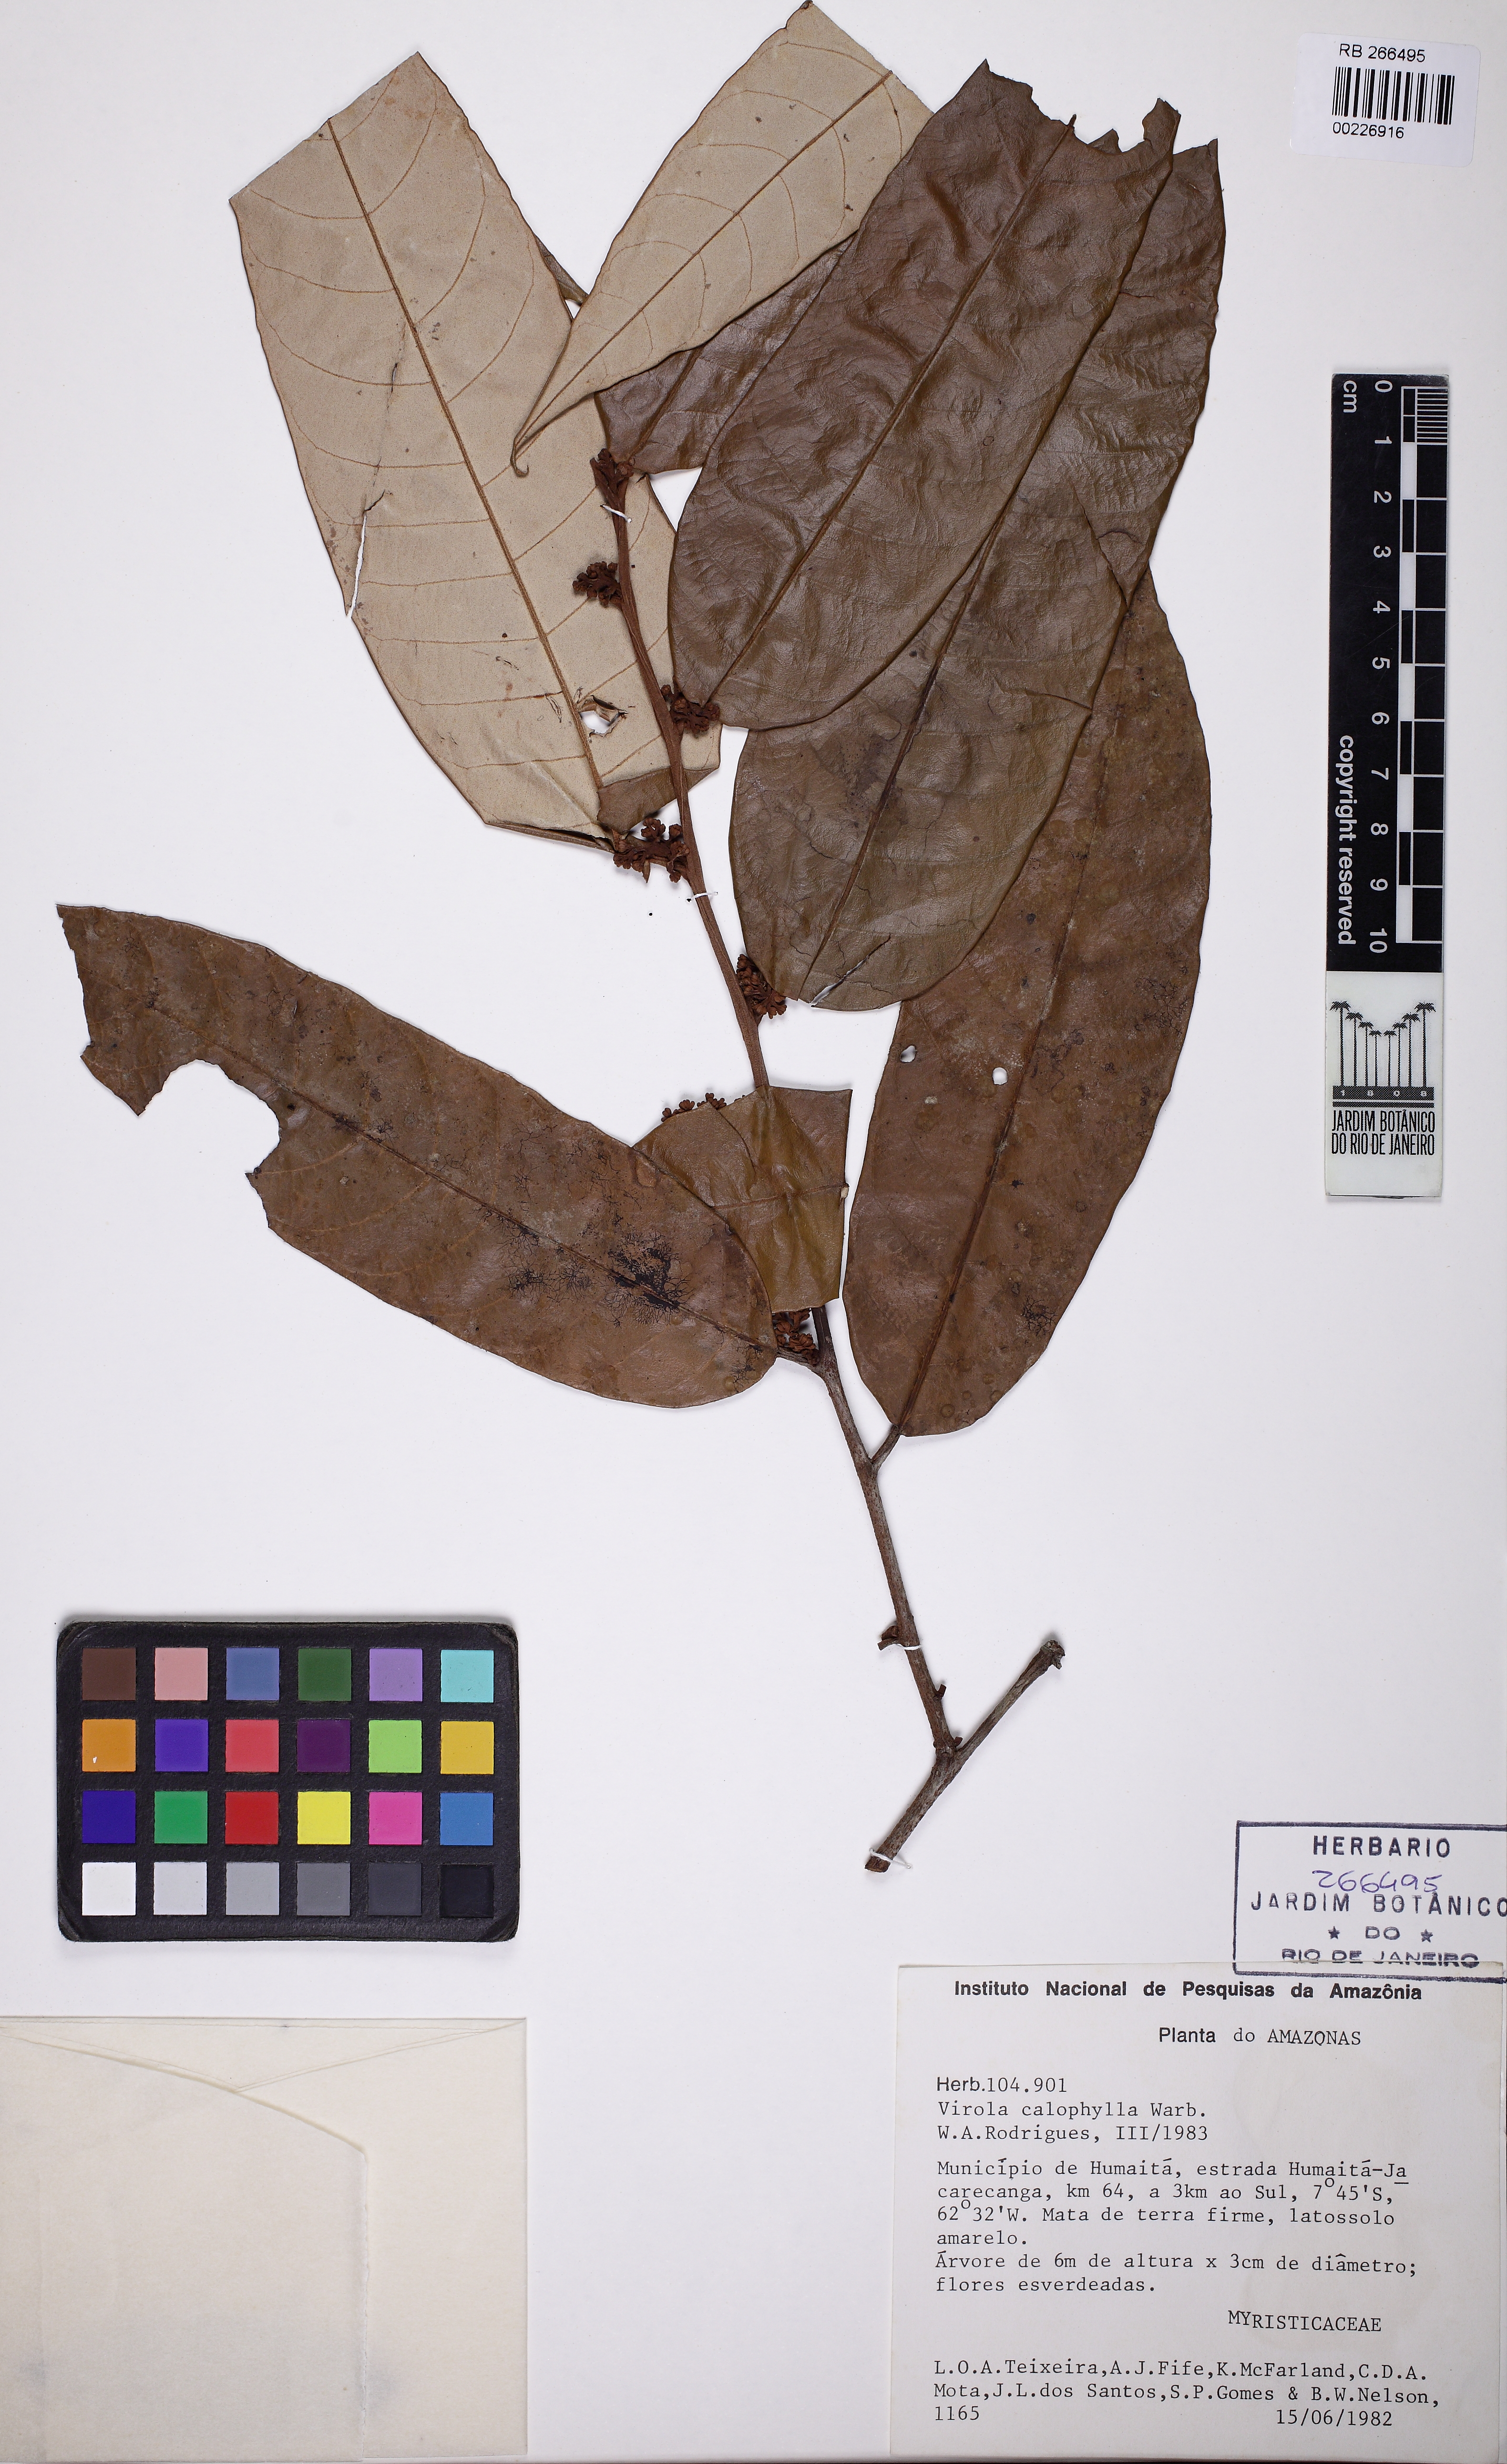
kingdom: Plantae
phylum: Tracheophyta
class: Magnoliopsida
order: Magnoliales
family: Myristicaceae
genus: Virola
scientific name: Virola calophylla
